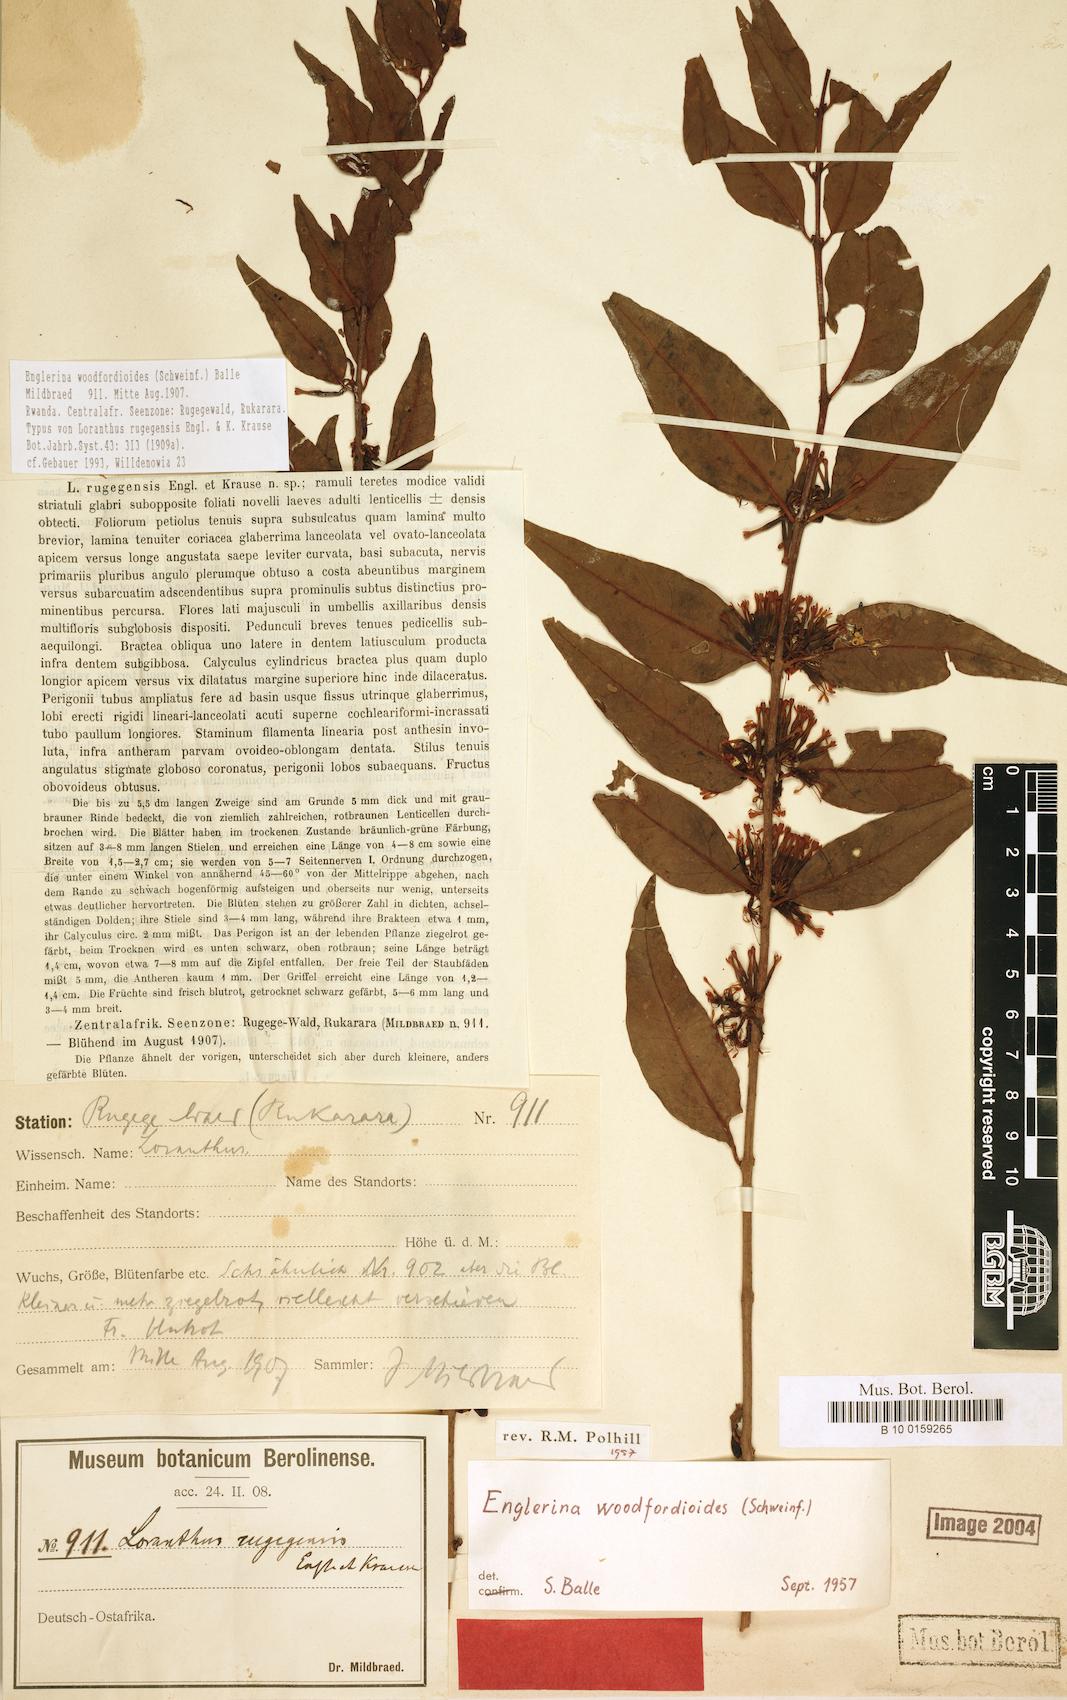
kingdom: Plantae
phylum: Tracheophyta
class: Magnoliopsida
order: Santalales
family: Loranthaceae
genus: Englerina
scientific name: Englerina woodfordioides
